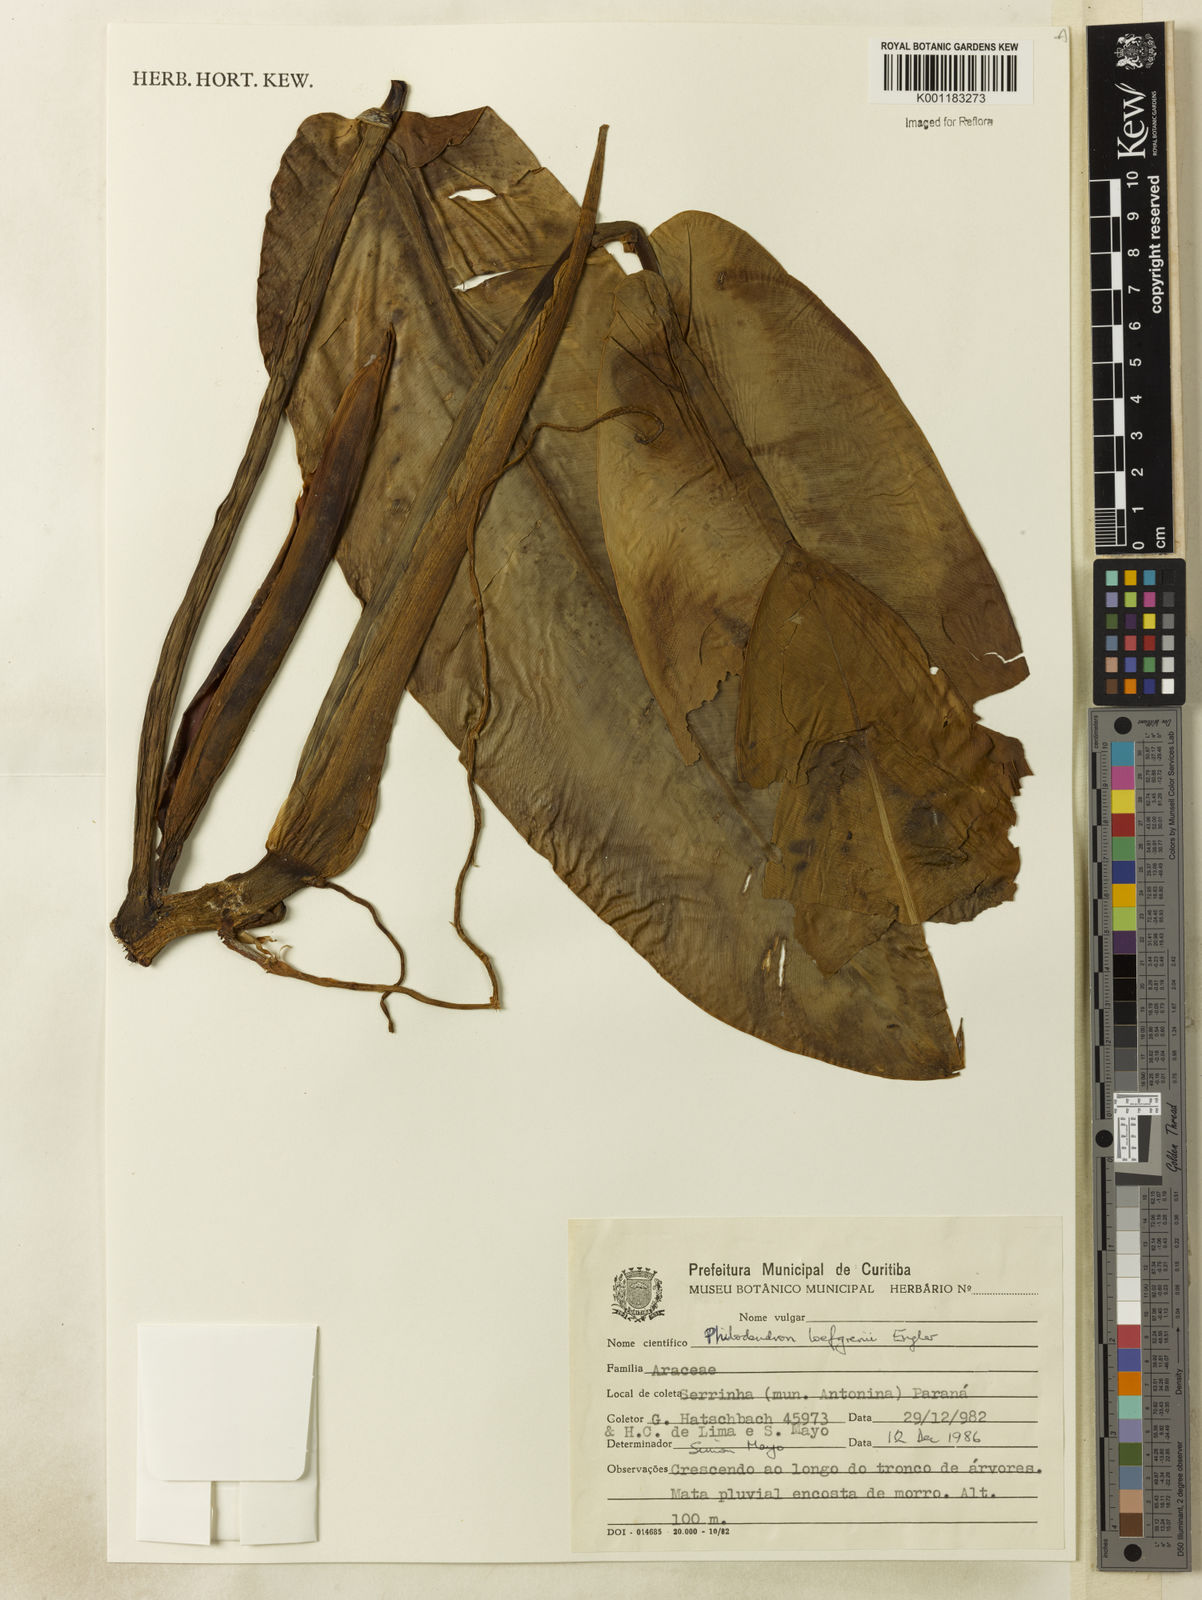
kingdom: Plantae
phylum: Tracheophyta
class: Liliopsida
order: Alismatales
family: Araceae
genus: Philodendron
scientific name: Philodendron loefgrenii
